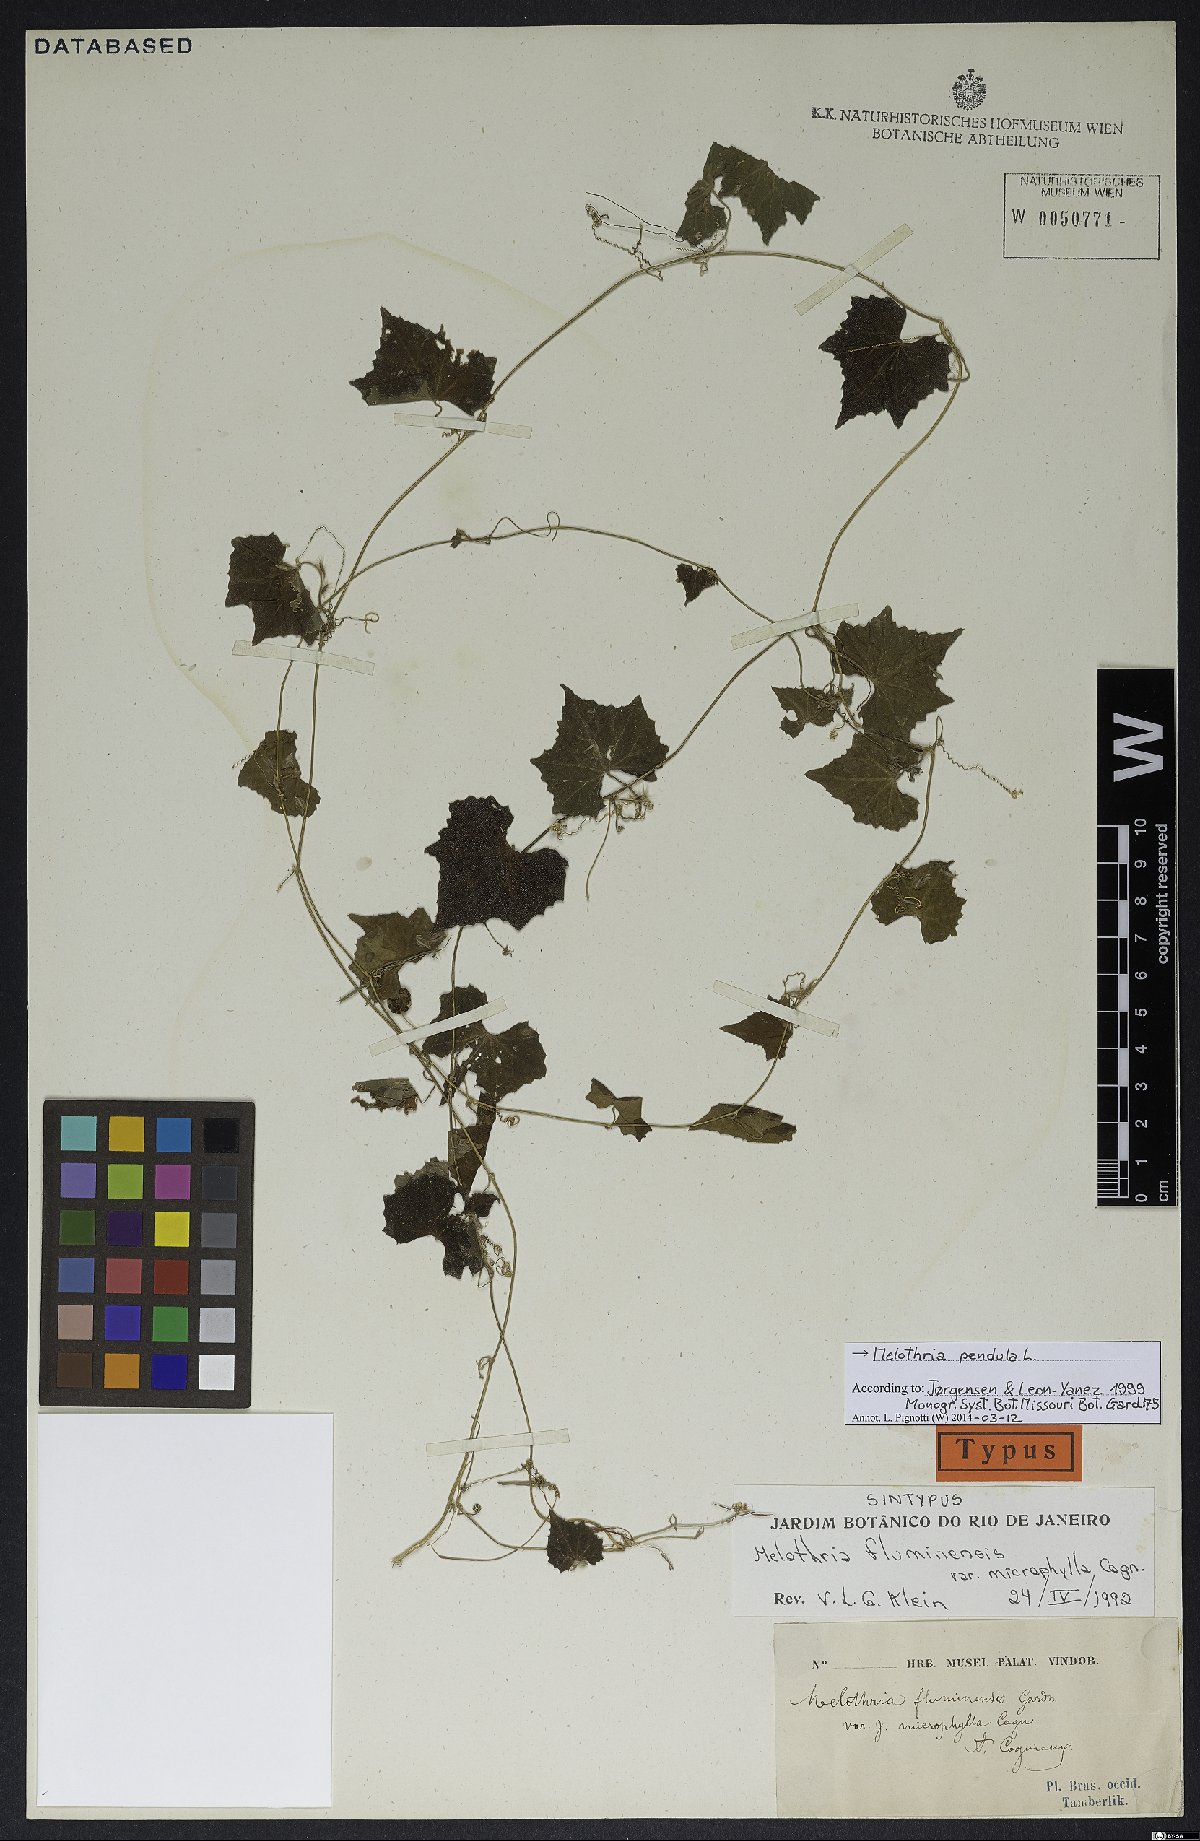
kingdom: Plantae
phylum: Tracheophyta
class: Magnoliopsida
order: Cucurbitales
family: Cucurbitaceae
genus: Melothria
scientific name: Melothria pendula
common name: Creeping-cucumber
